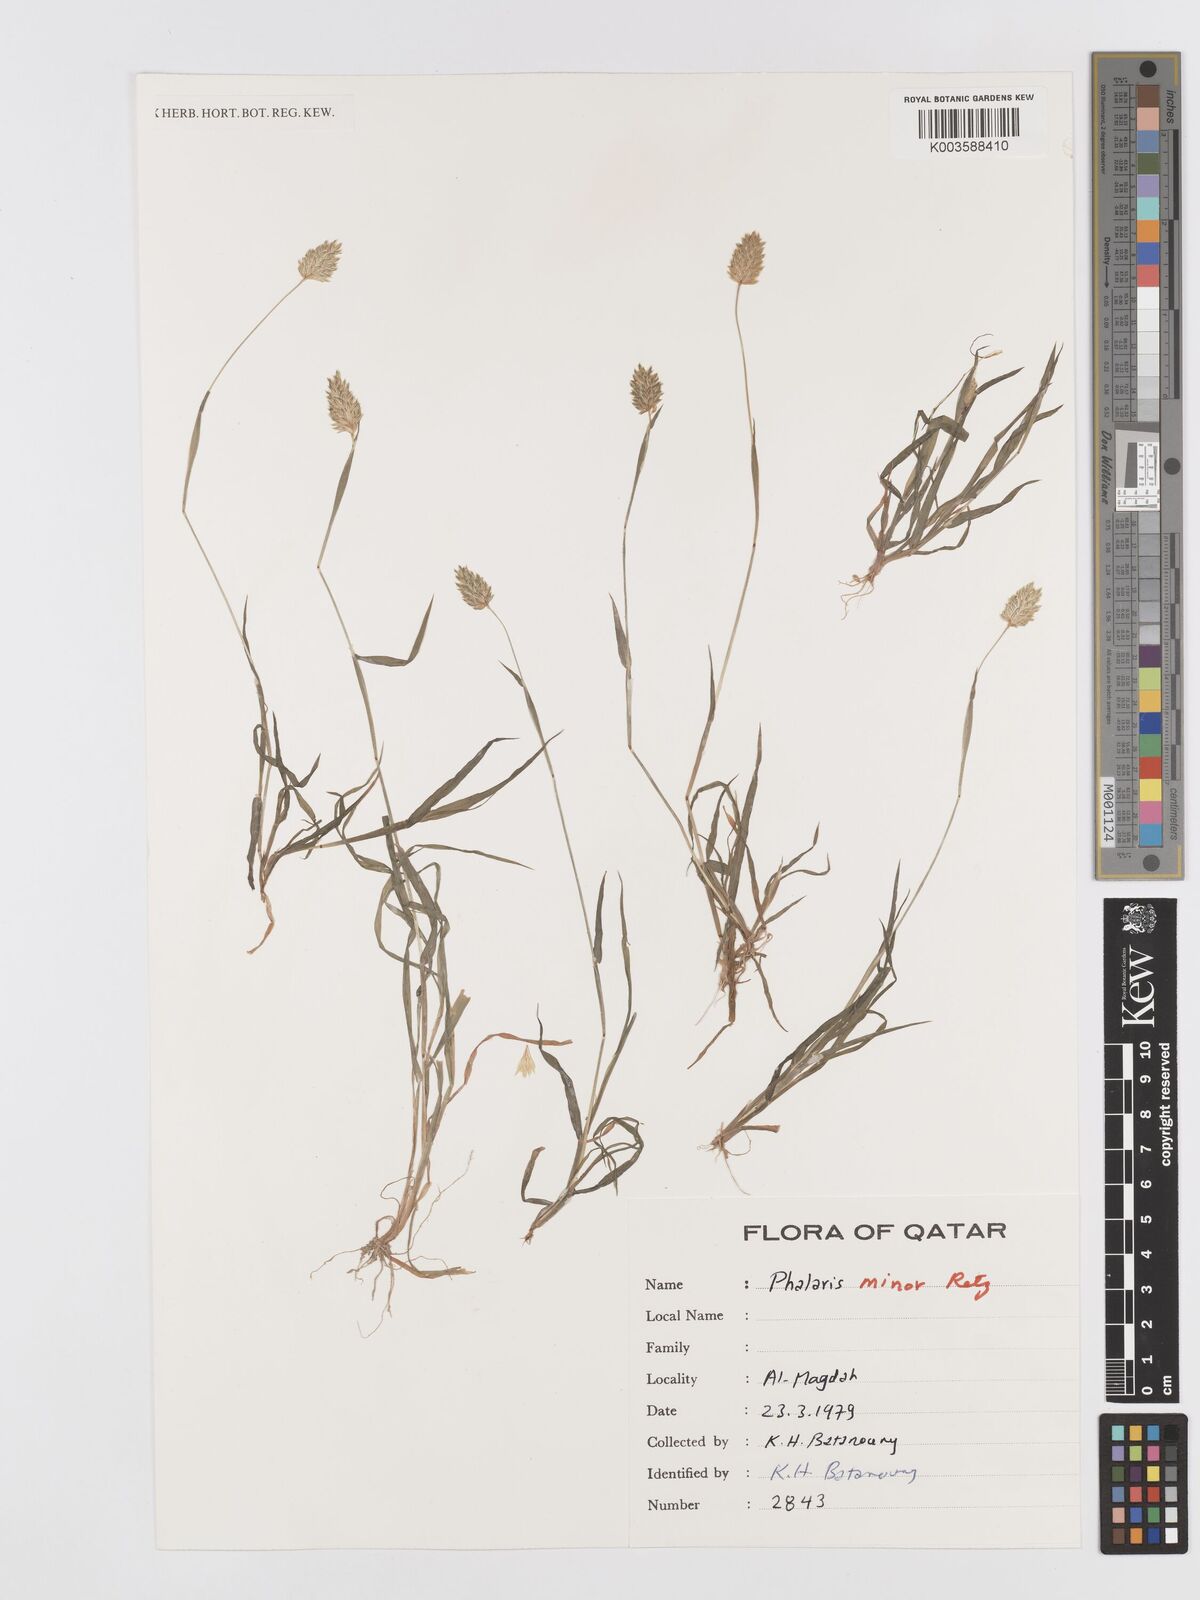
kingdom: Plantae
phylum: Tracheophyta
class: Liliopsida
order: Poales
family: Poaceae
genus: Phalaris
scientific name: Phalaris minor
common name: Littleseed canarygrass
